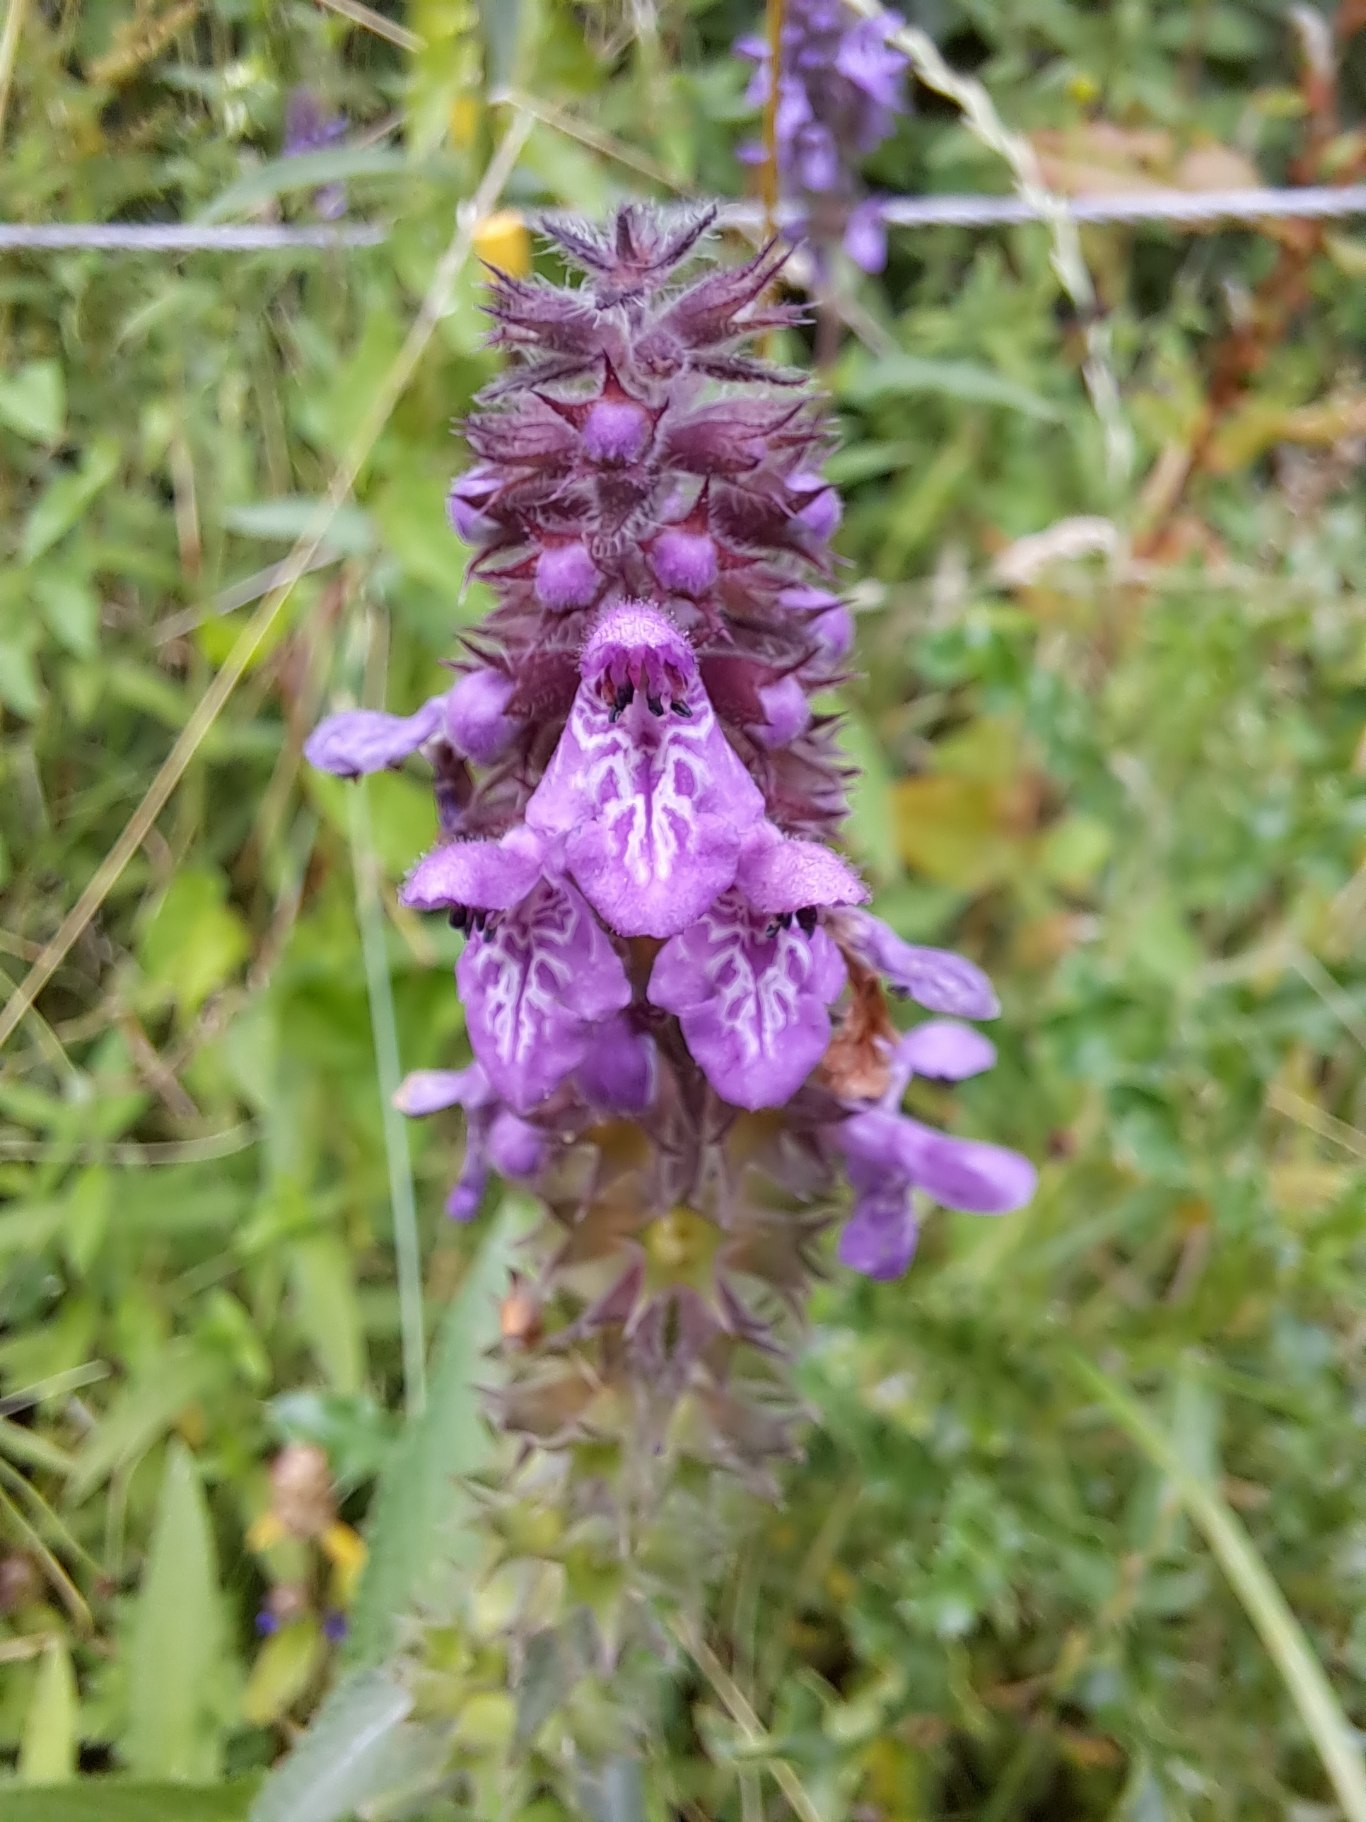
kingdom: Plantae
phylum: Tracheophyta
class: Magnoliopsida
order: Lamiales
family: Lamiaceae
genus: Stachys
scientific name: Stachys palustris
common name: Kær-galtetand
